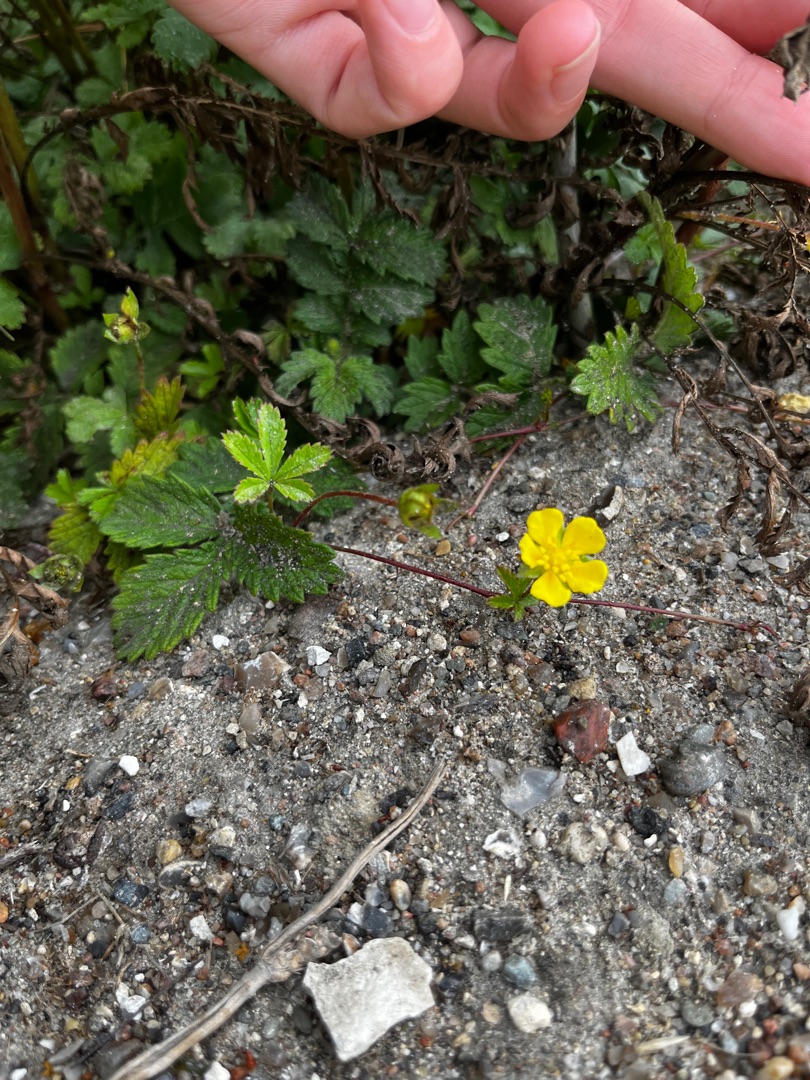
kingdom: Plantae
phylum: Tracheophyta
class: Magnoliopsida
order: Rosales
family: Rosaceae
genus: Potentilla
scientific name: Potentilla reptans
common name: Krybende potentil
